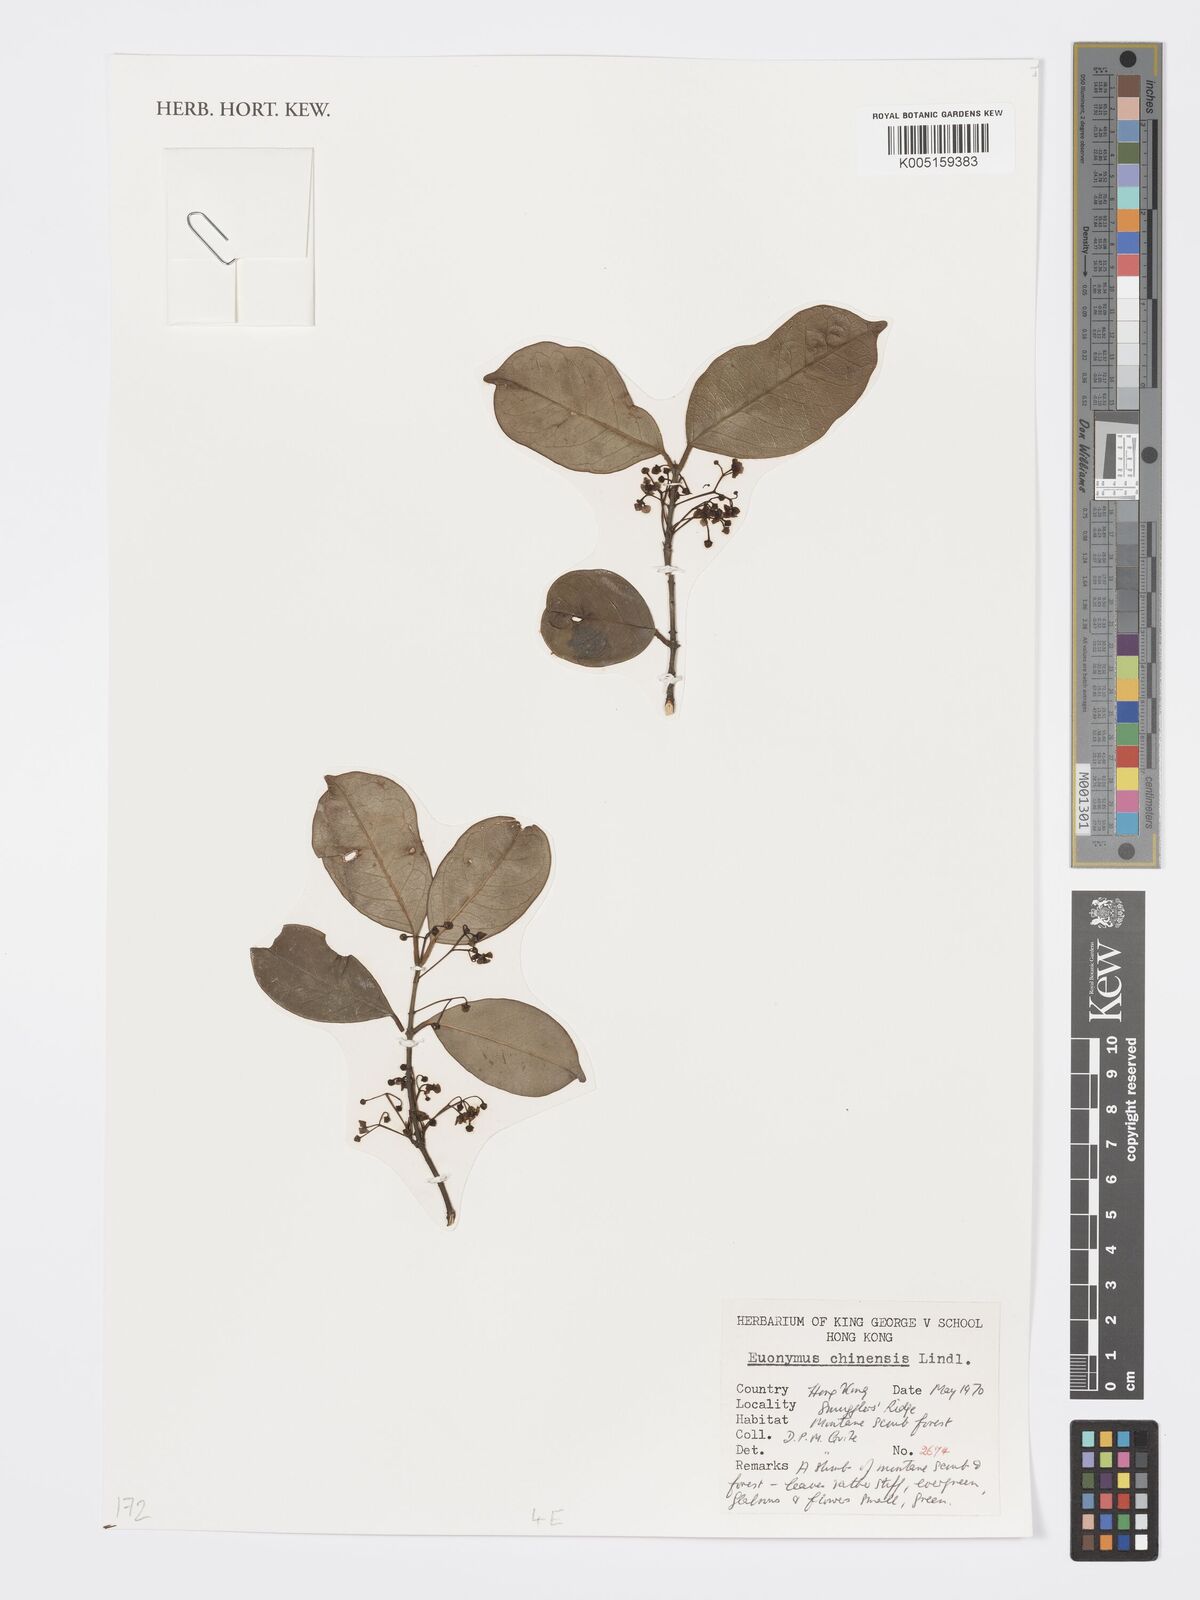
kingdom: Plantae
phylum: Tracheophyta
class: Magnoliopsida
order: Celastrales
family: Celastraceae
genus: Euonymus
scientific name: Euonymus nitidus
